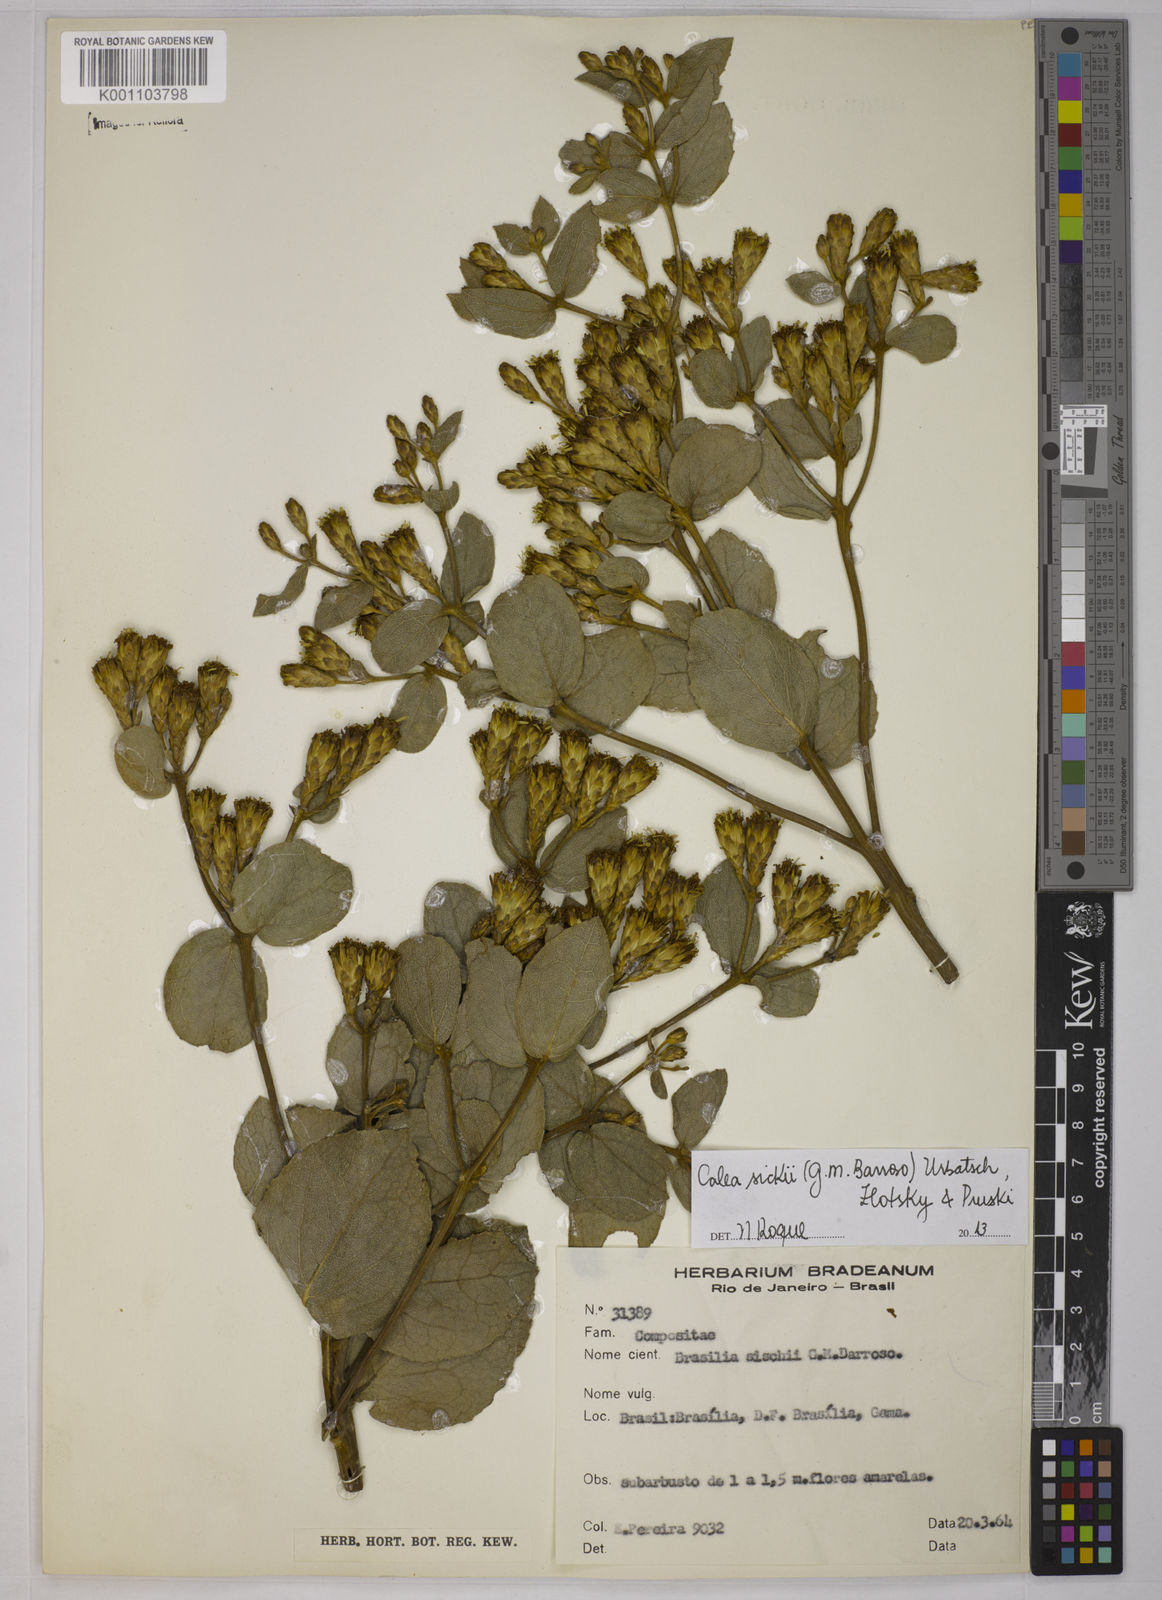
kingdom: Plantae
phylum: Tracheophyta
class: Magnoliopsida
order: Asterales
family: Asteraceae
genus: Calea
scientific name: Calea sickii
